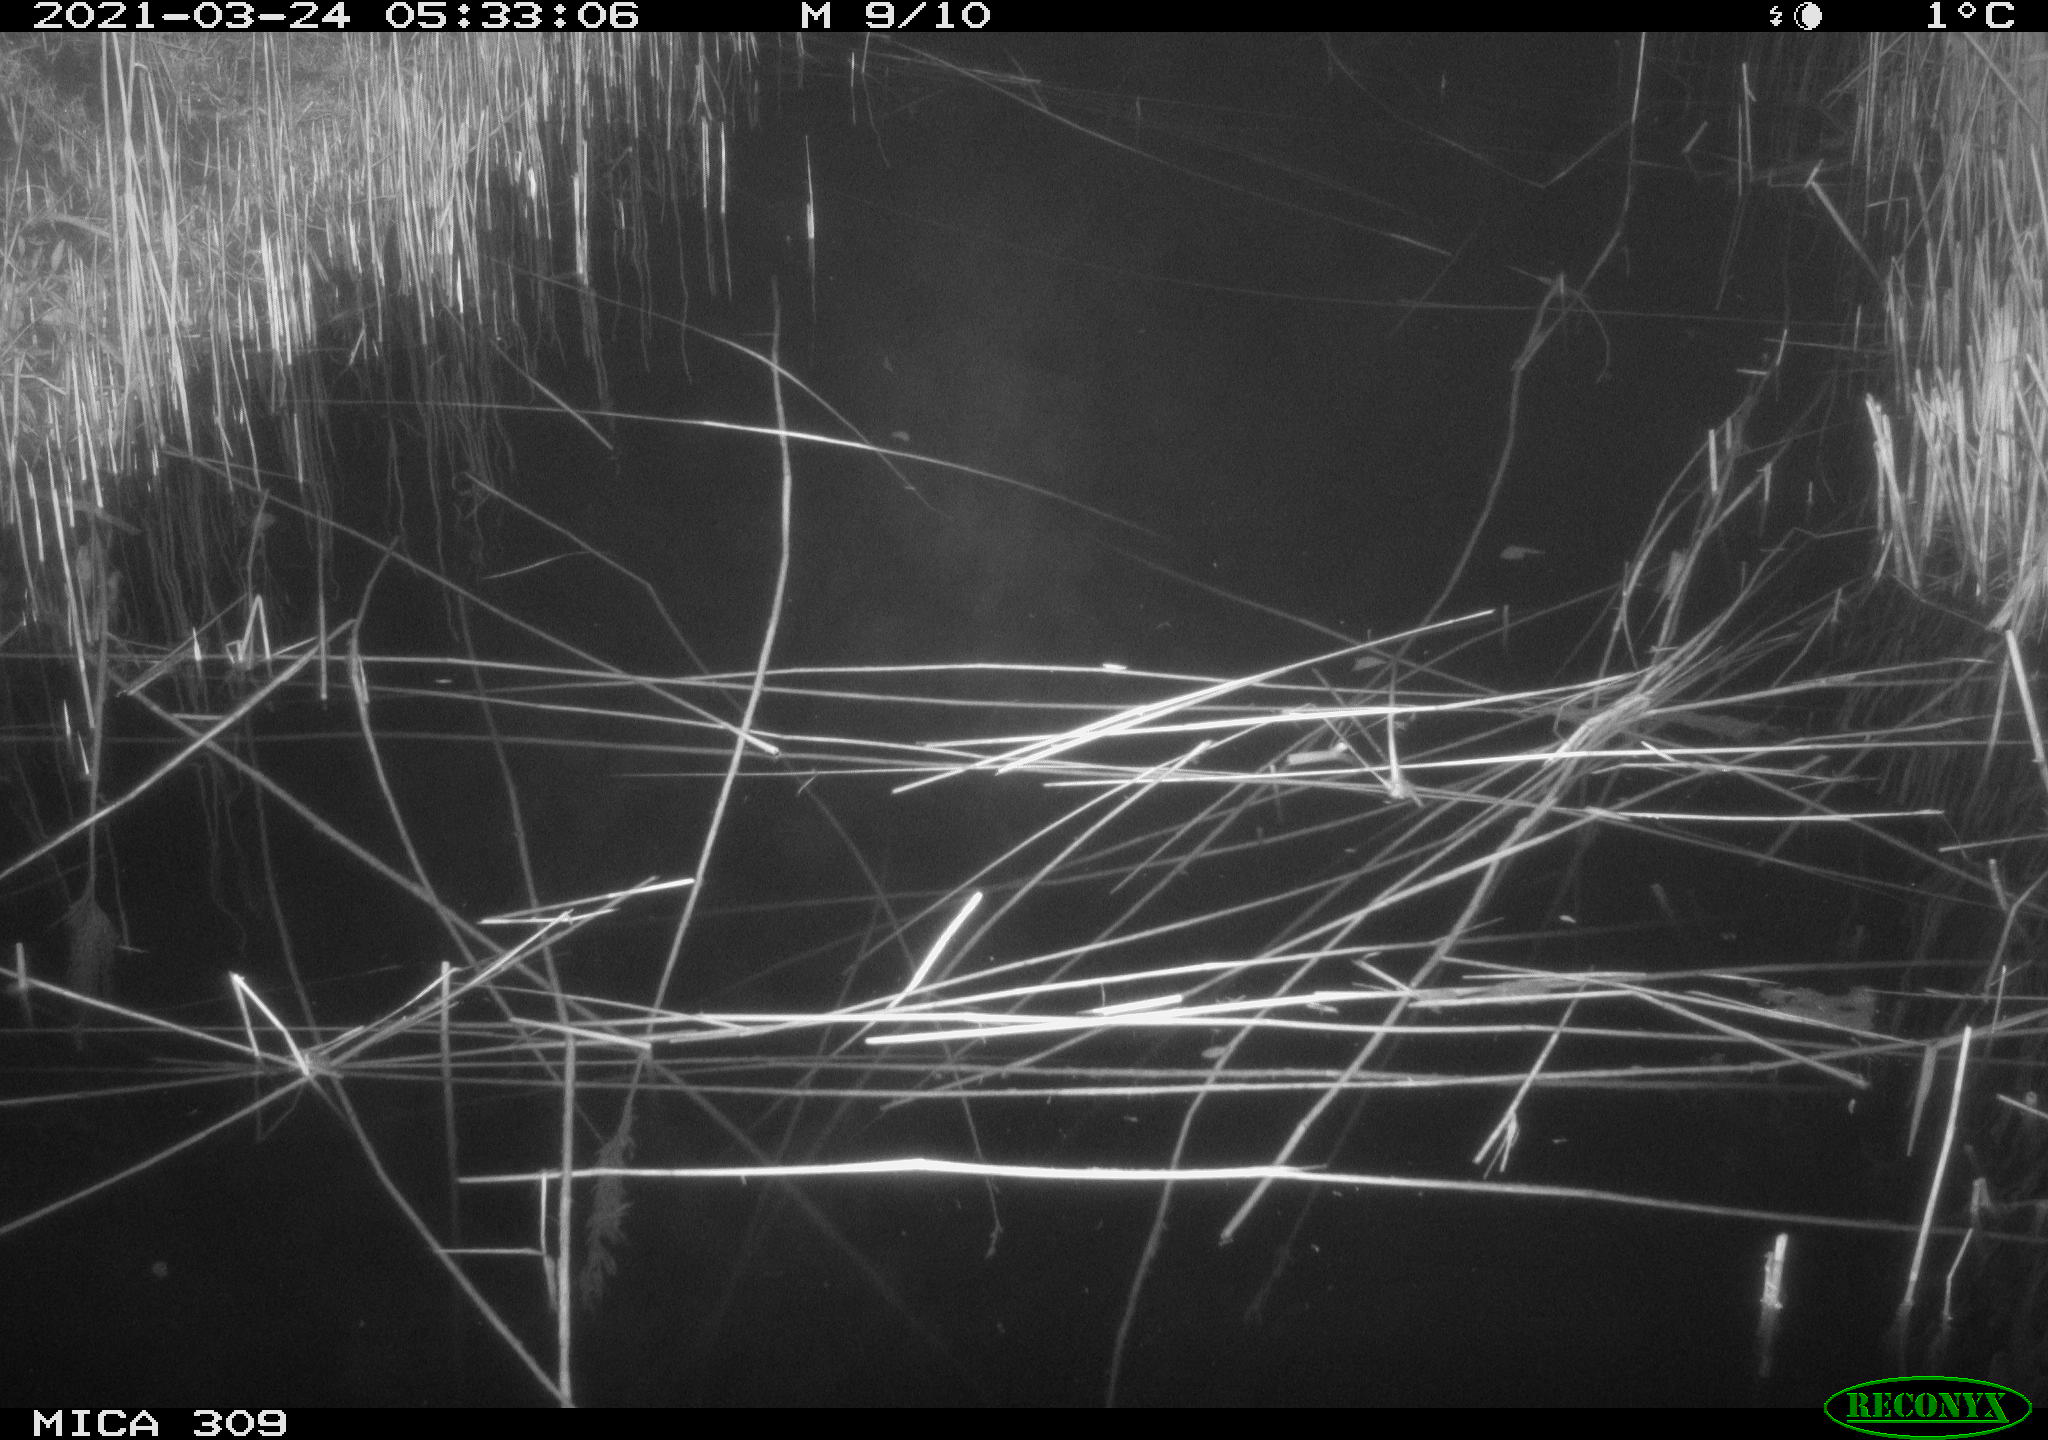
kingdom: Animalia
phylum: Chordata
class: Aves
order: Anseriformes
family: Anatidae
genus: Anas
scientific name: Anas platyrhynchos
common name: Mallard
